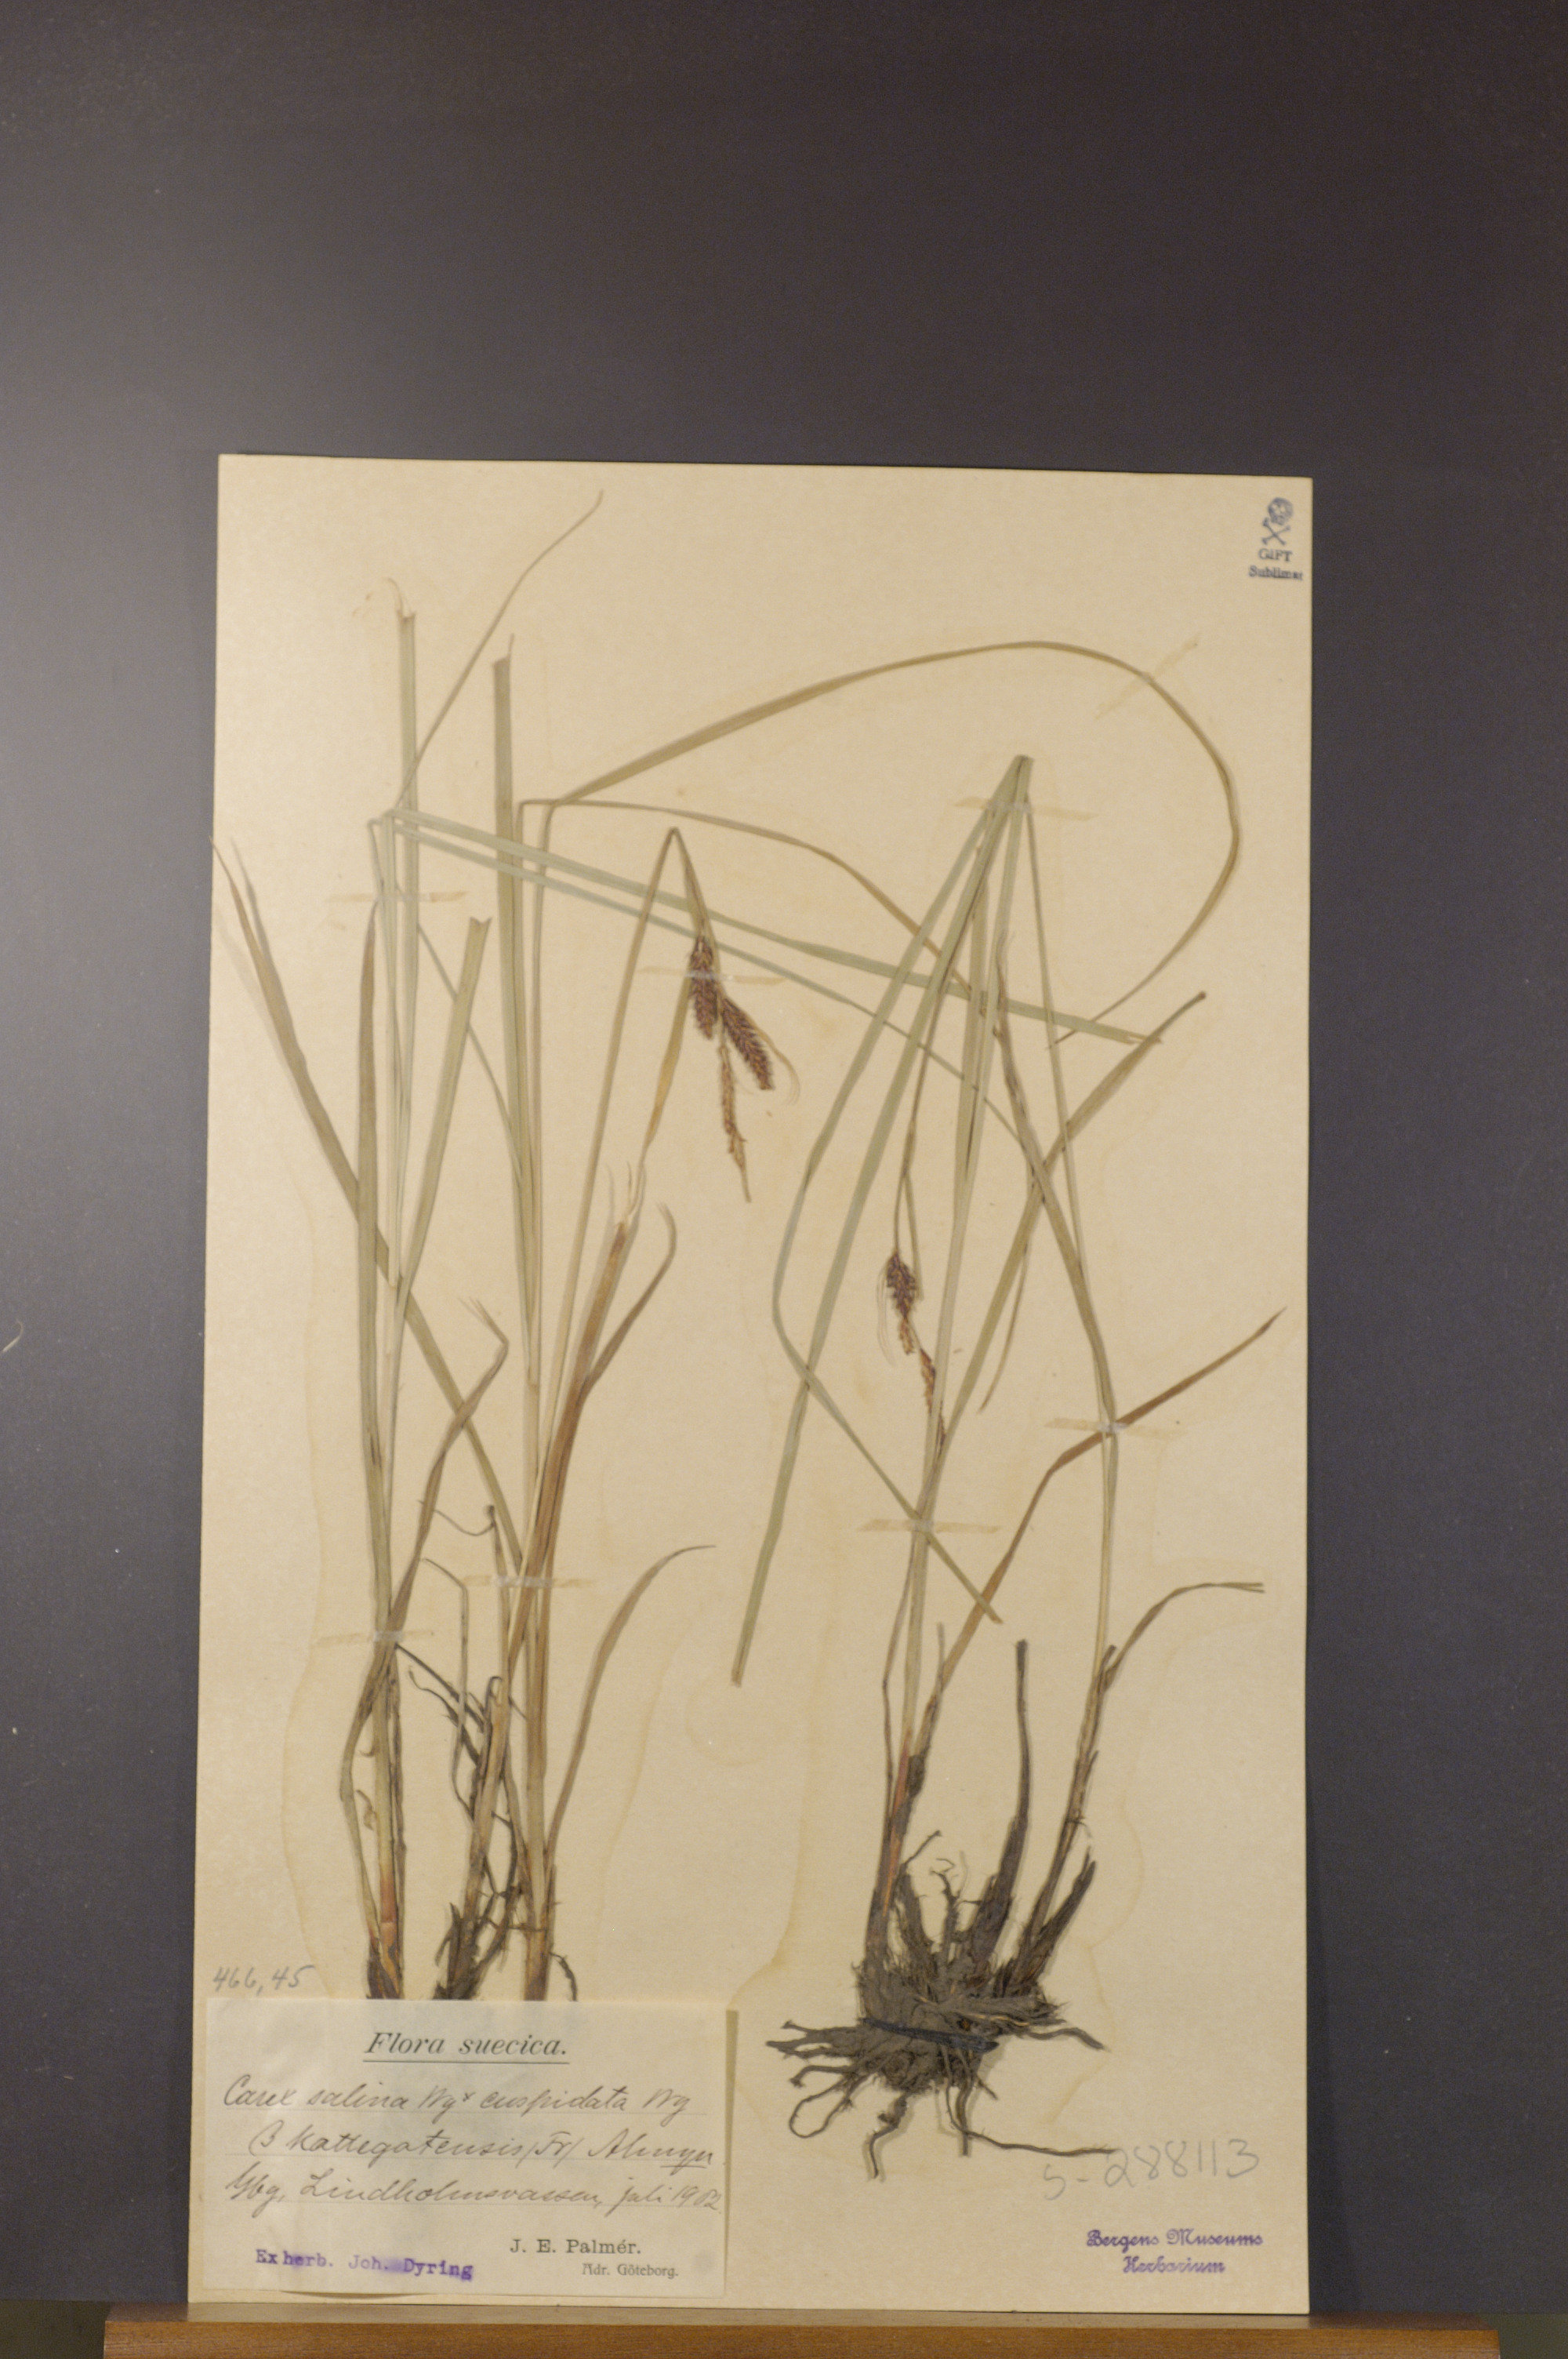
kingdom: Plantae
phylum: Tracheophyta
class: Liliopsida
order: Poales
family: Cyperaceae
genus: Carex
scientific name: Carex salina
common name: Saltmarsh sedge
